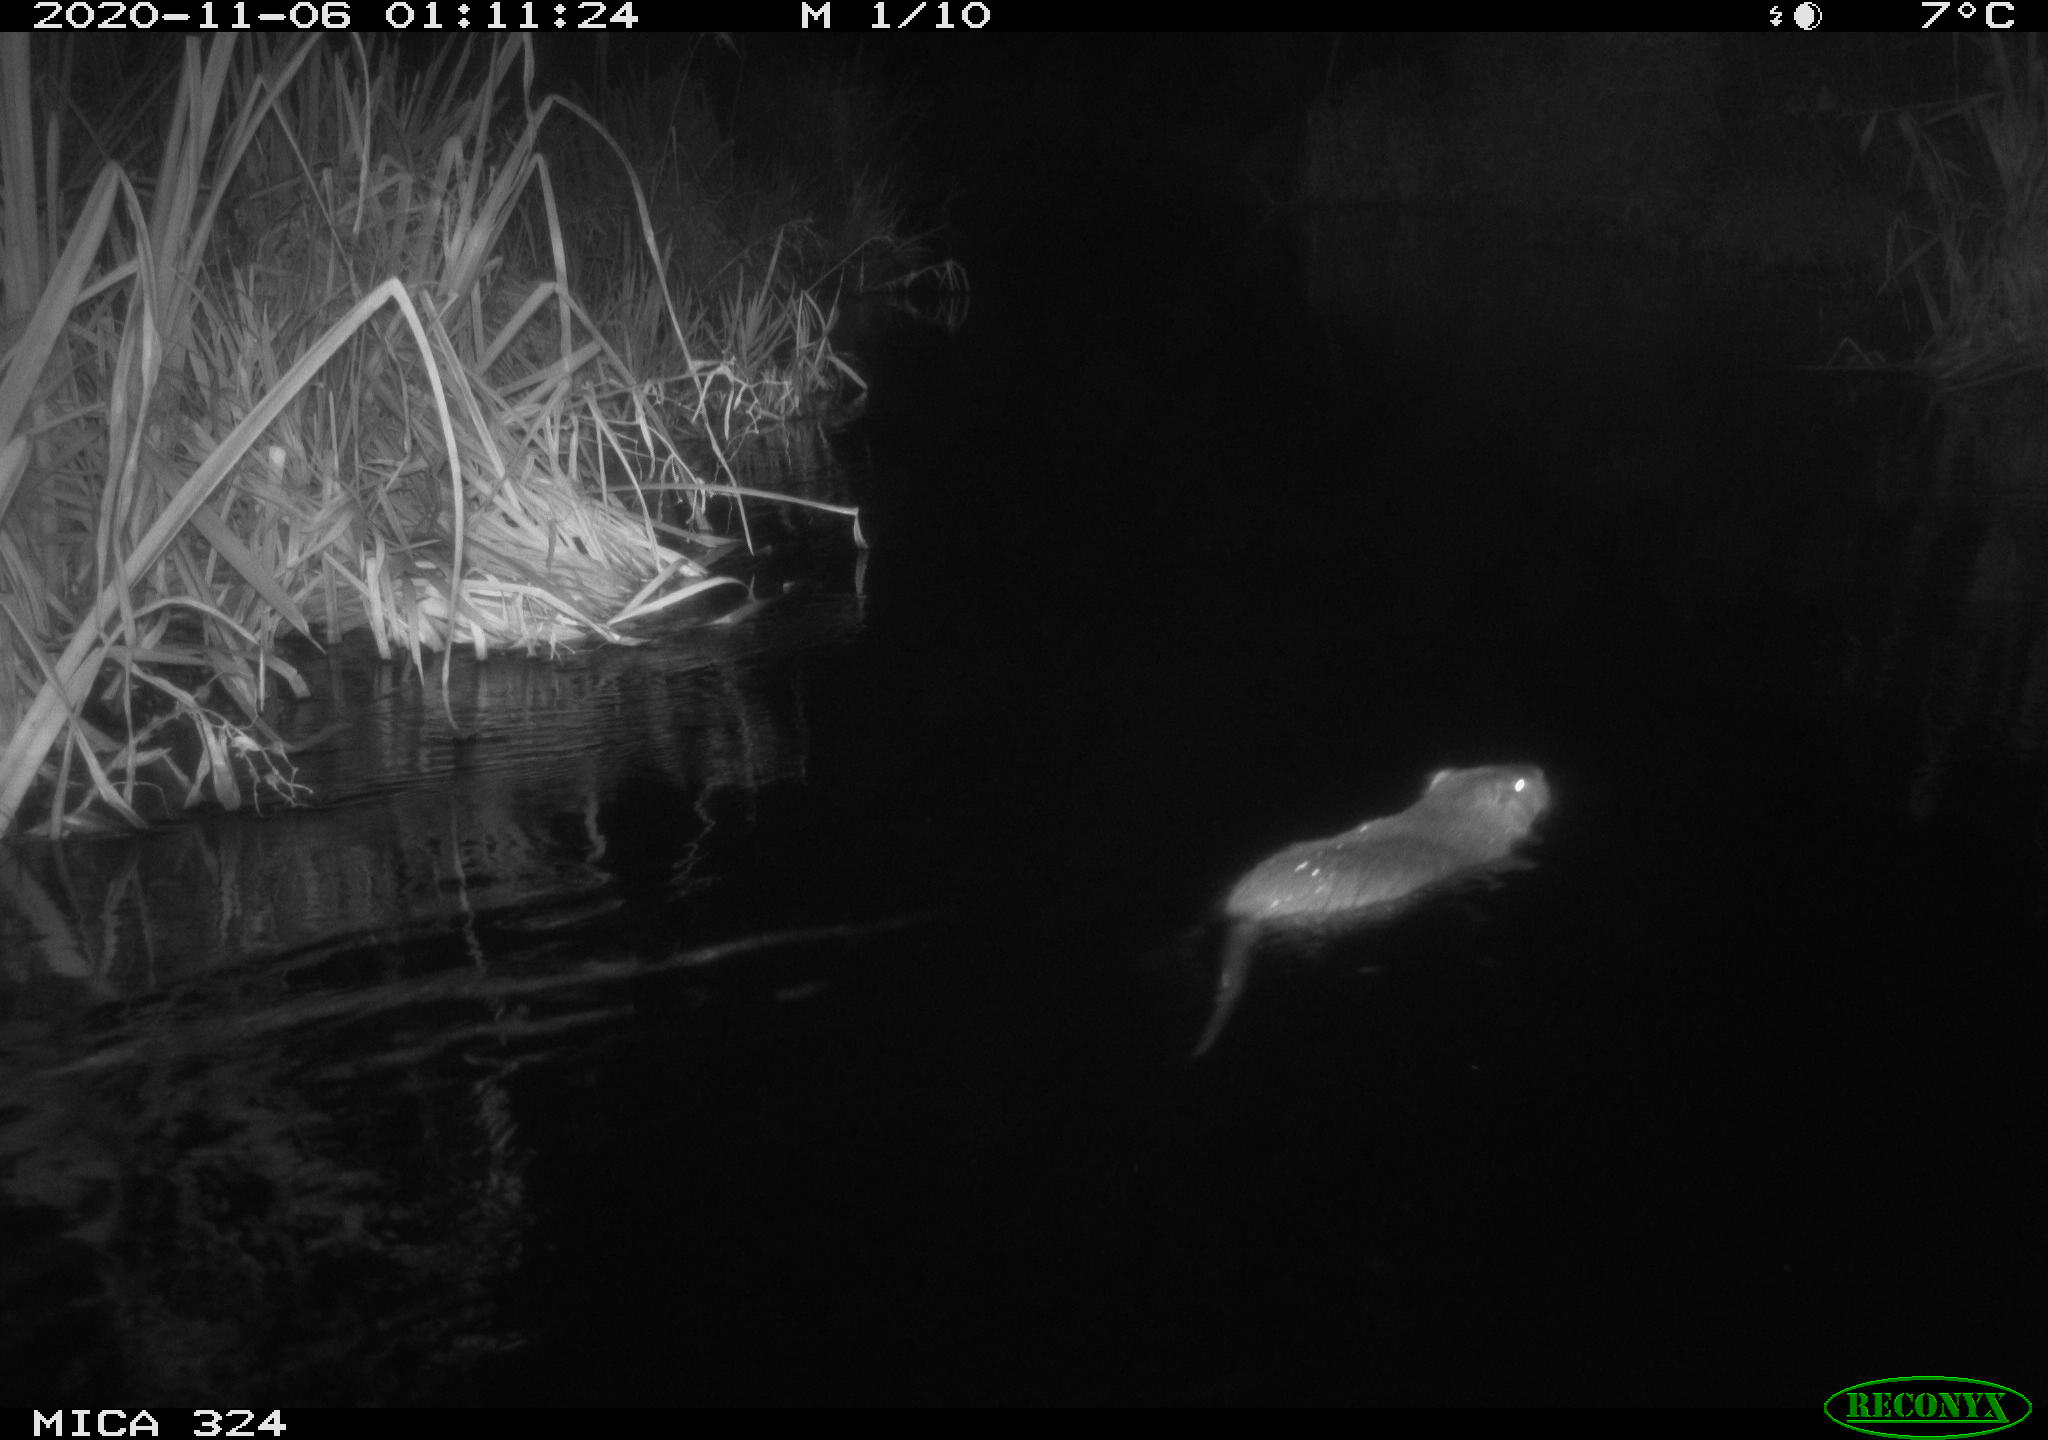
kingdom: Animalia
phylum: Chordata
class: Mammalia
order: Rodentia
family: Myocastoridae
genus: Myocastor
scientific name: Myocastor coypus
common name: Coypu
